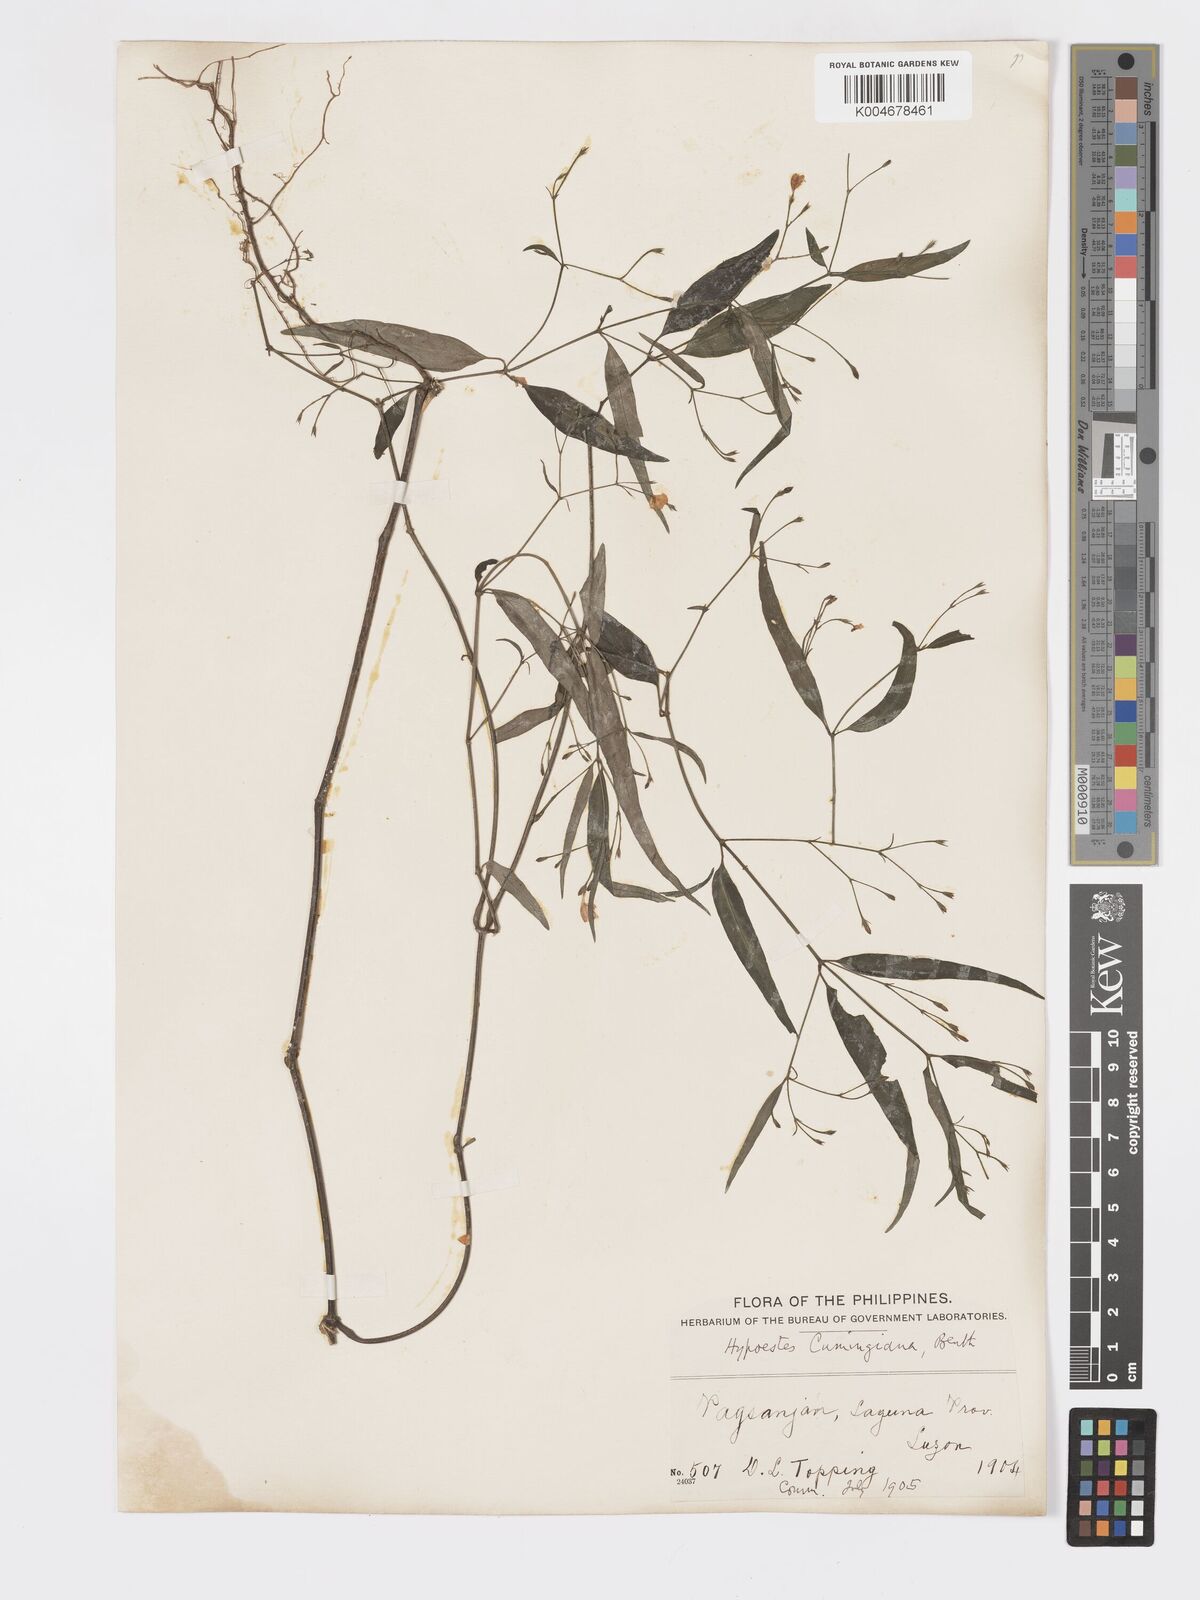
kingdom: Plantae
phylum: Tracheophyta
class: Magnoliopsida
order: Lamiales
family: Acanthaceae
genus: Hypoestes
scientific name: Hypoestes cumingiana
